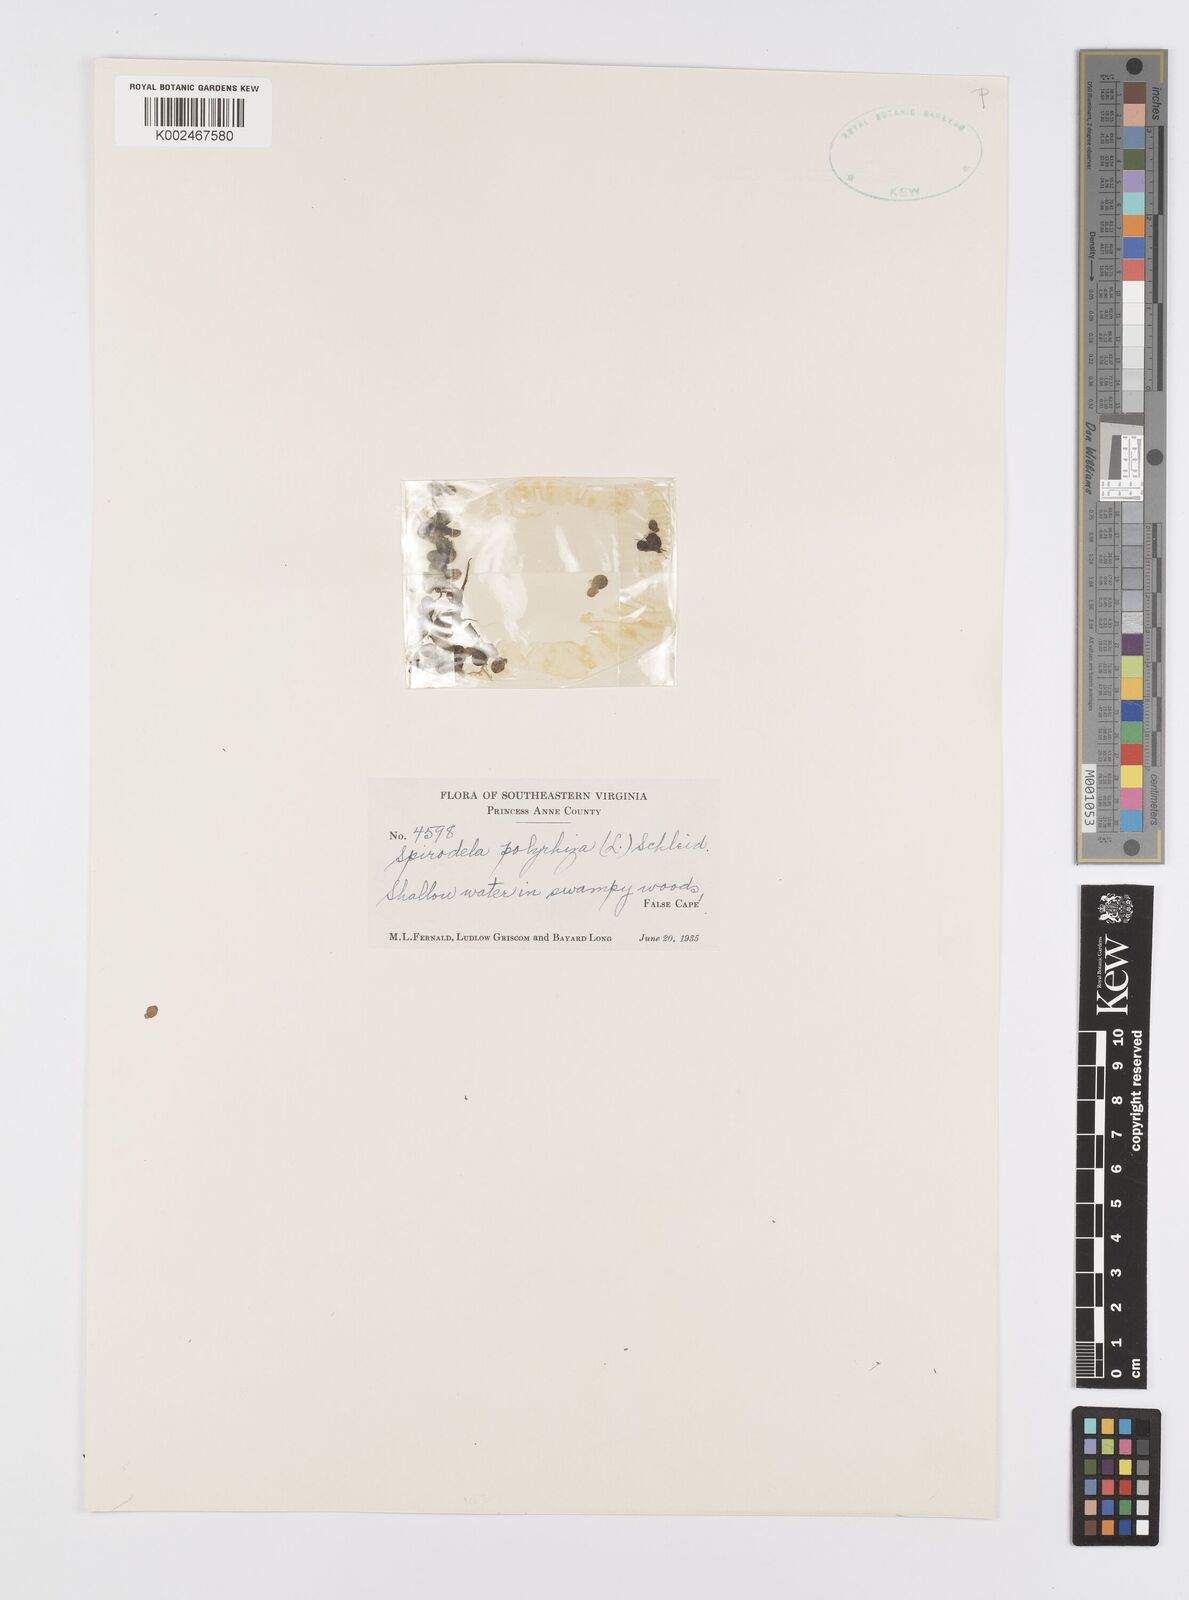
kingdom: Plantae
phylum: Tracheophyta
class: Liliopsida
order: Alismatales
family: Araceae
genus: Spirodela
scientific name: Spirodela polyrhiza
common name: Great duckweed
